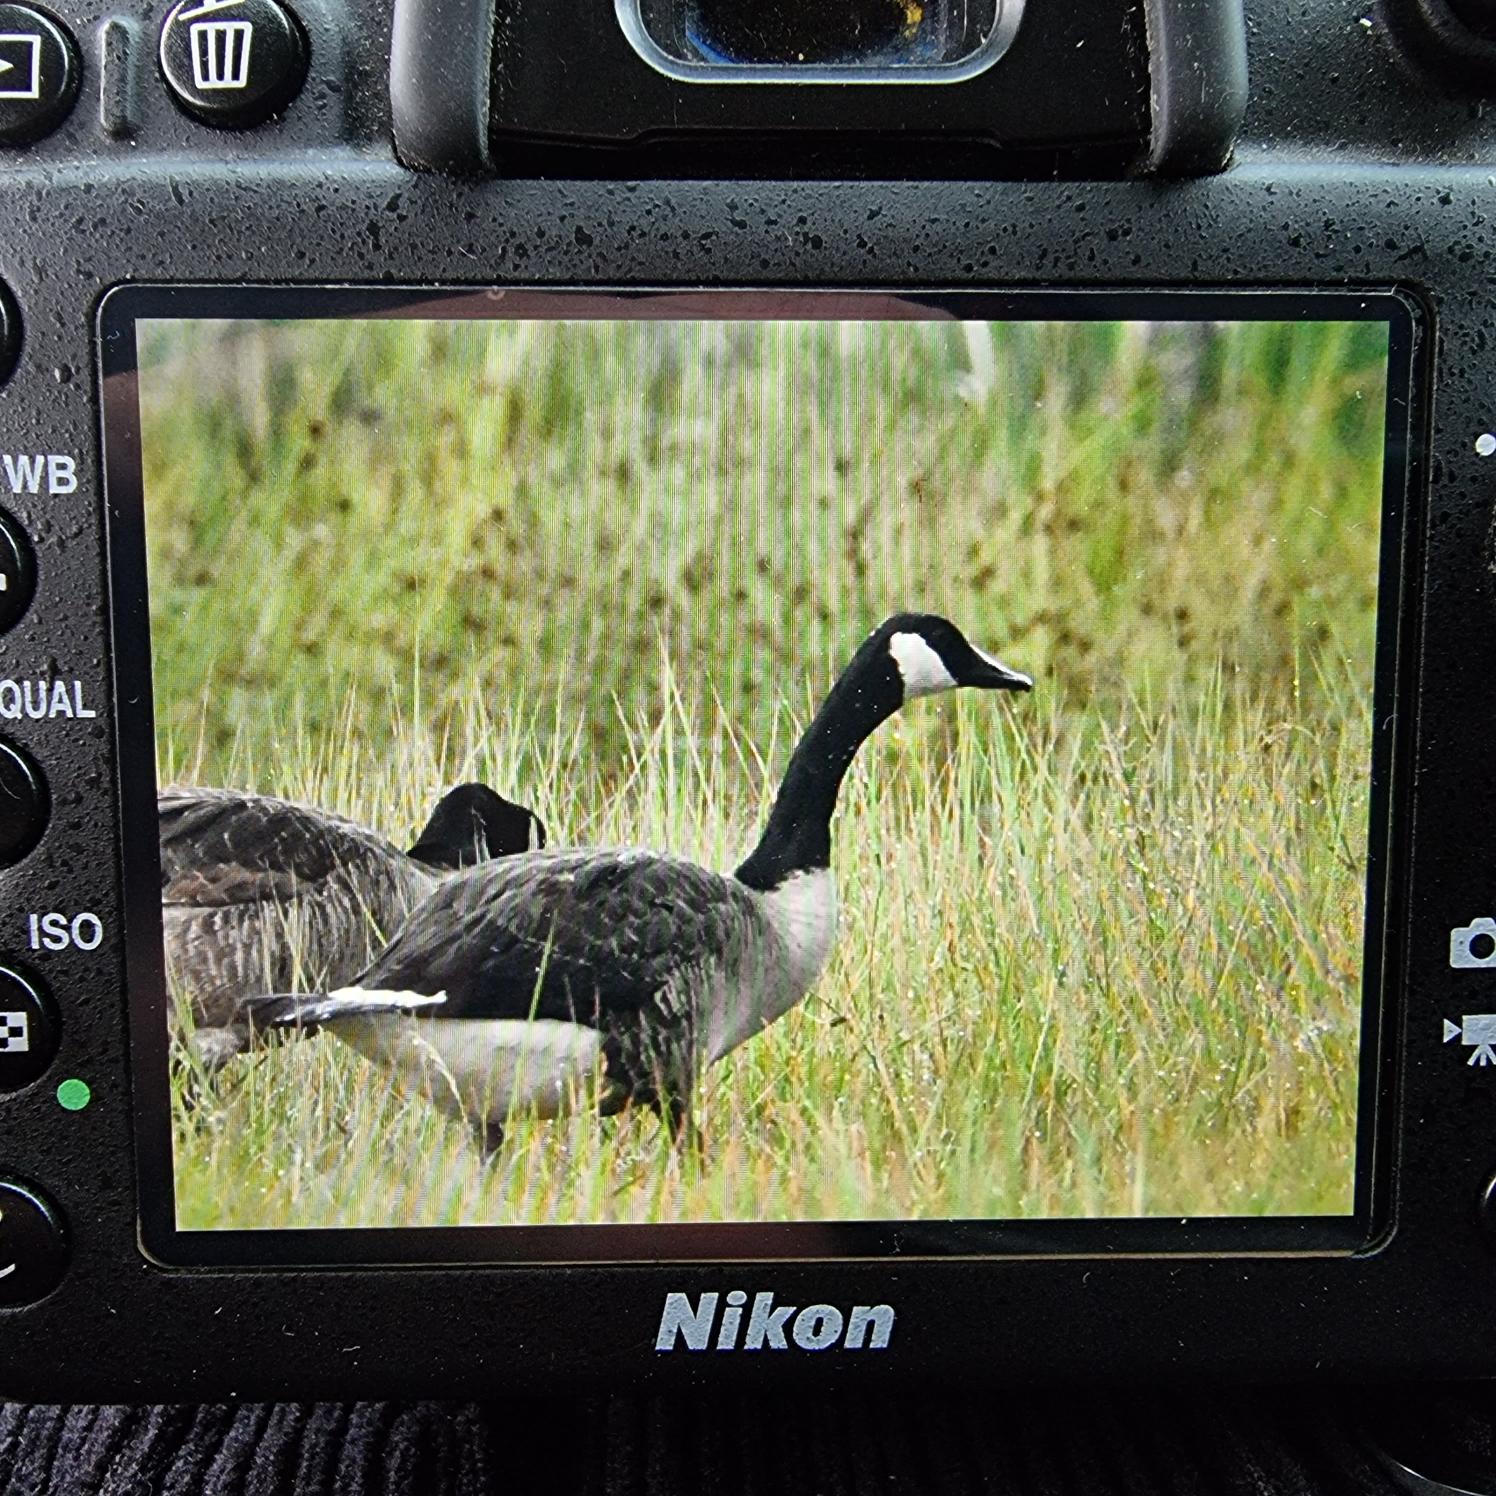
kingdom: Animalia
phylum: Chordata
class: Aves
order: Anseriformes
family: Anatidae
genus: Branta
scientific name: Branta canadensis
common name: Canadagås
